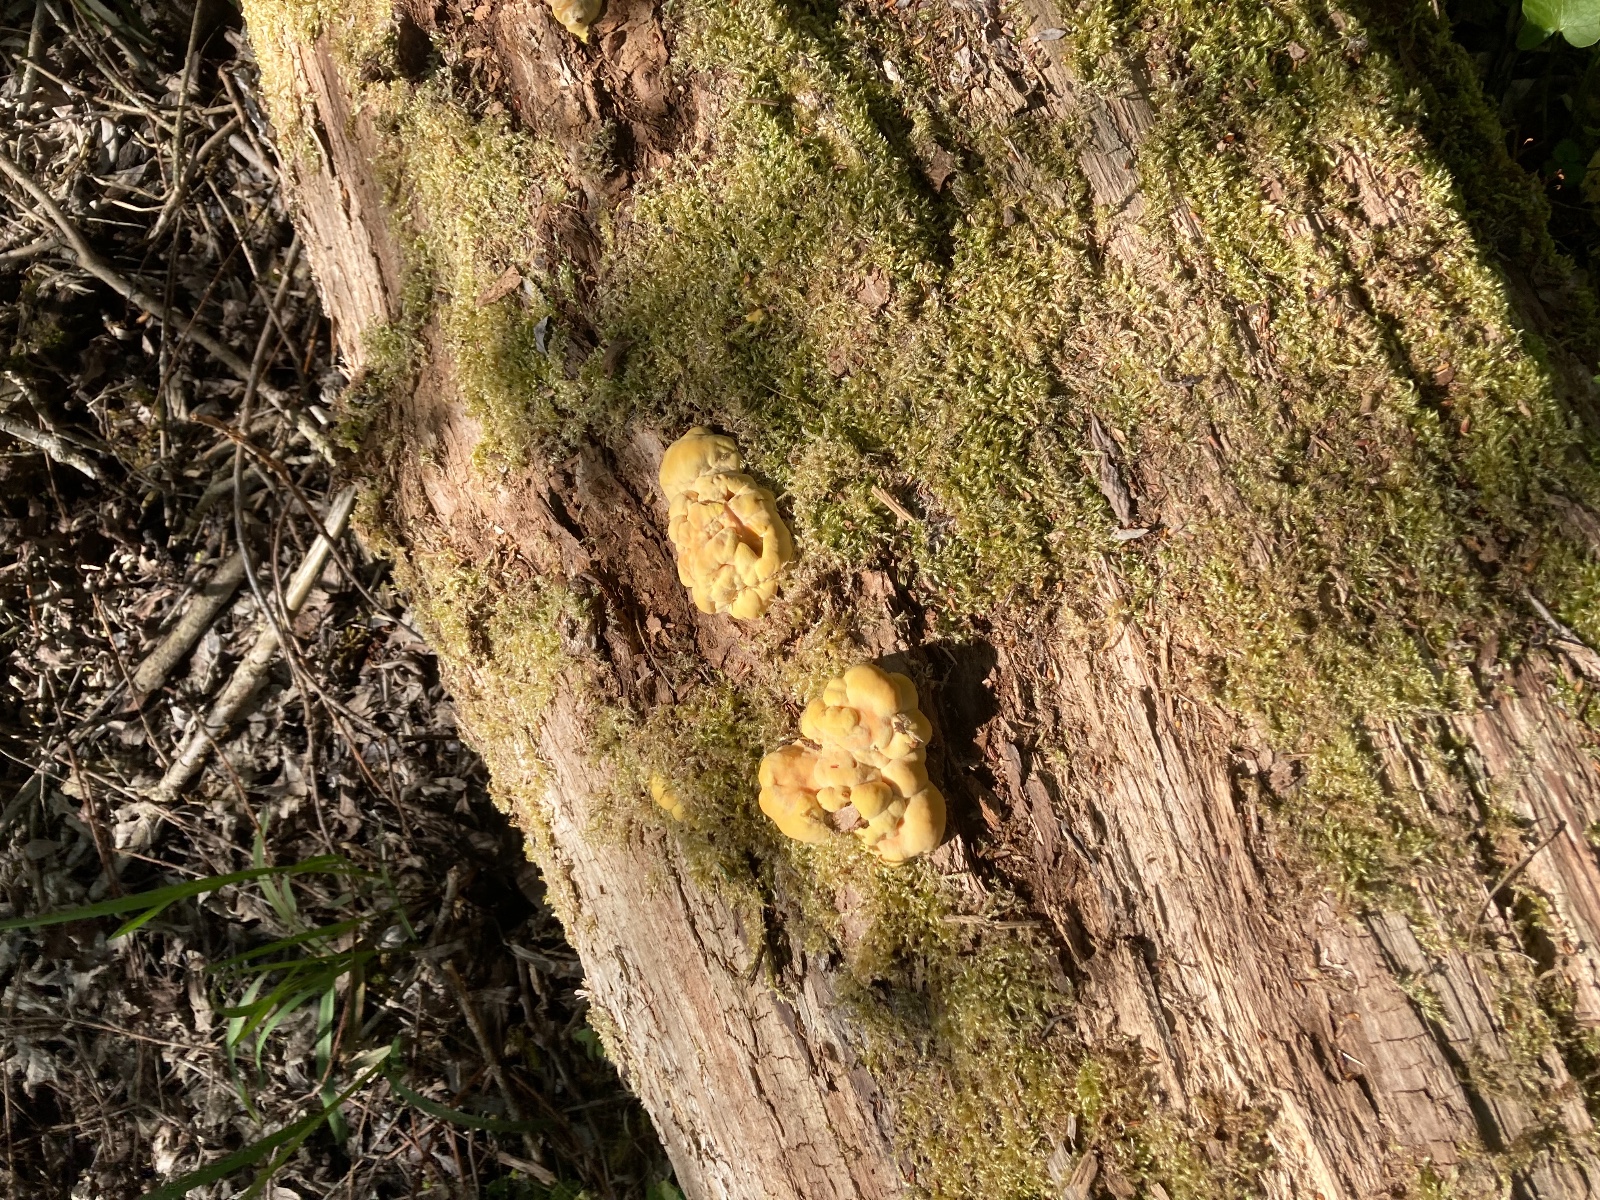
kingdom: Fungi
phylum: Basidiomycota
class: Agaricomycetes
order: Polyporales
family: Laetiporaceae
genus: Laetiporus
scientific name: Laetiporus sulphureus
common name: svovlporesvamp
